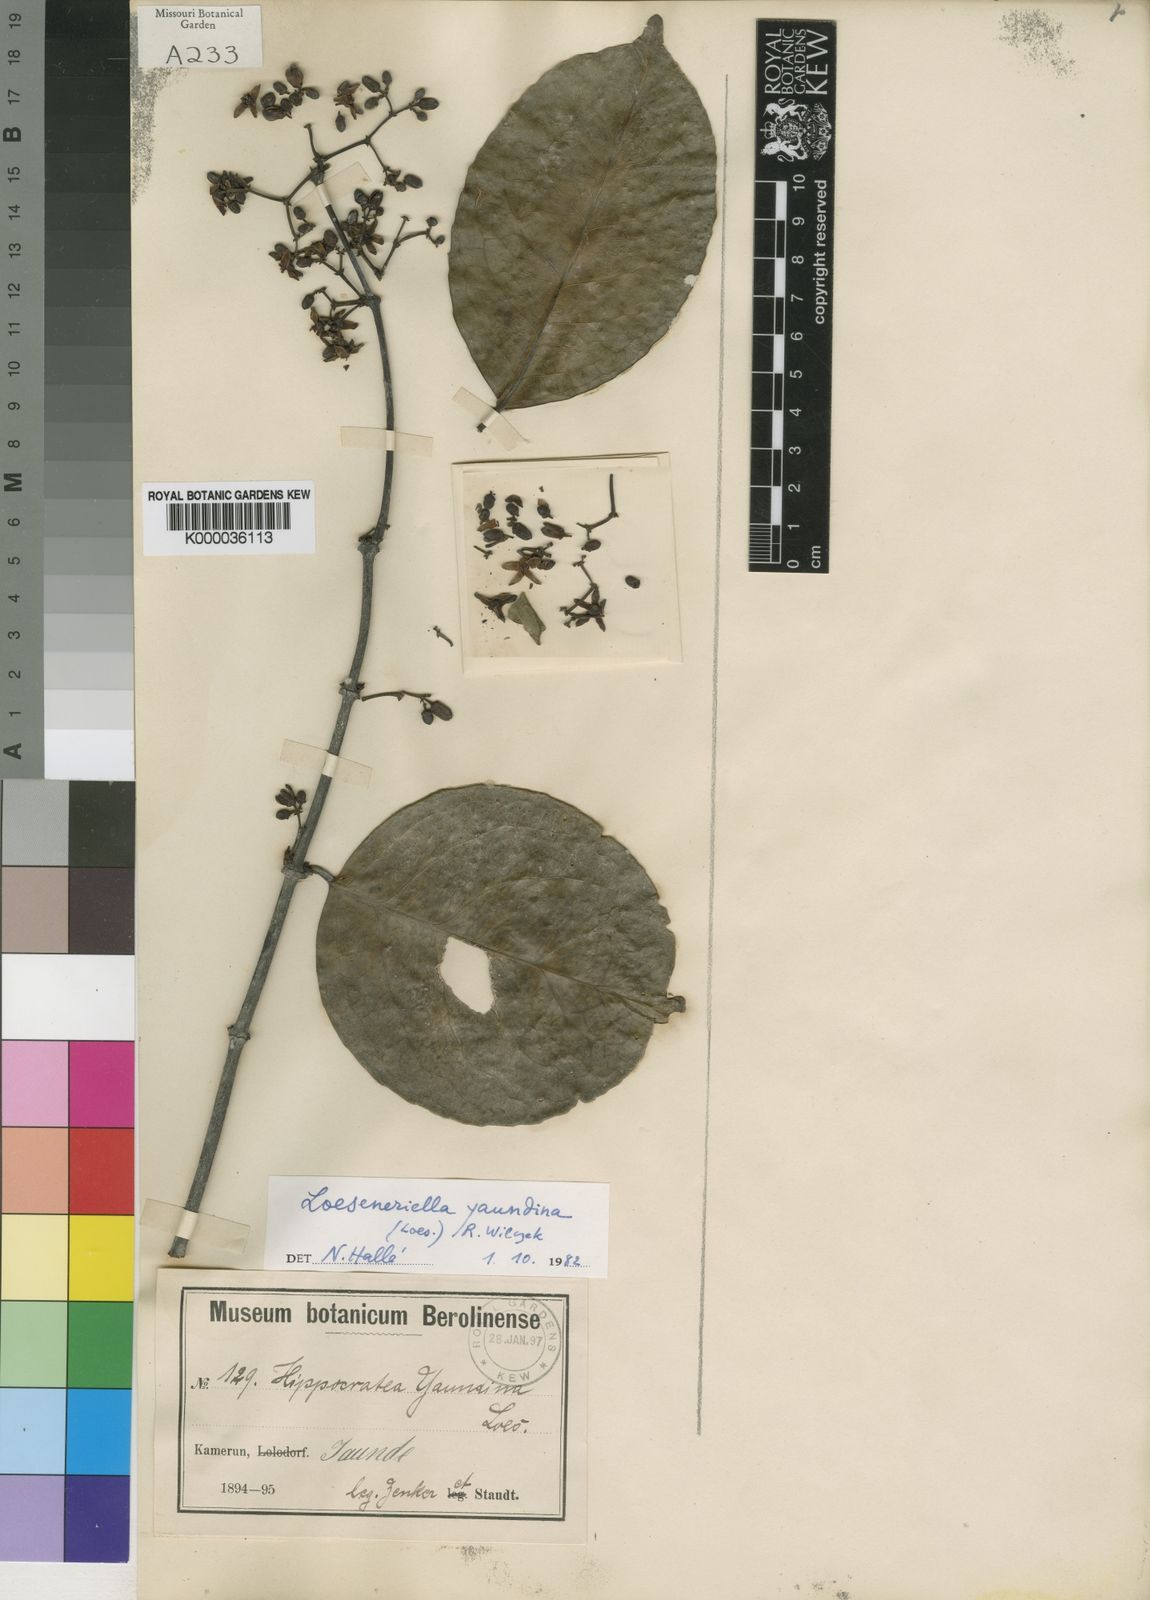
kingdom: Plantae
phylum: Tracheophyta
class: Magnoliopsida
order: Celastrales
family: Celastraceae
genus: Loeseneriella
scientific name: Loeseneriella
